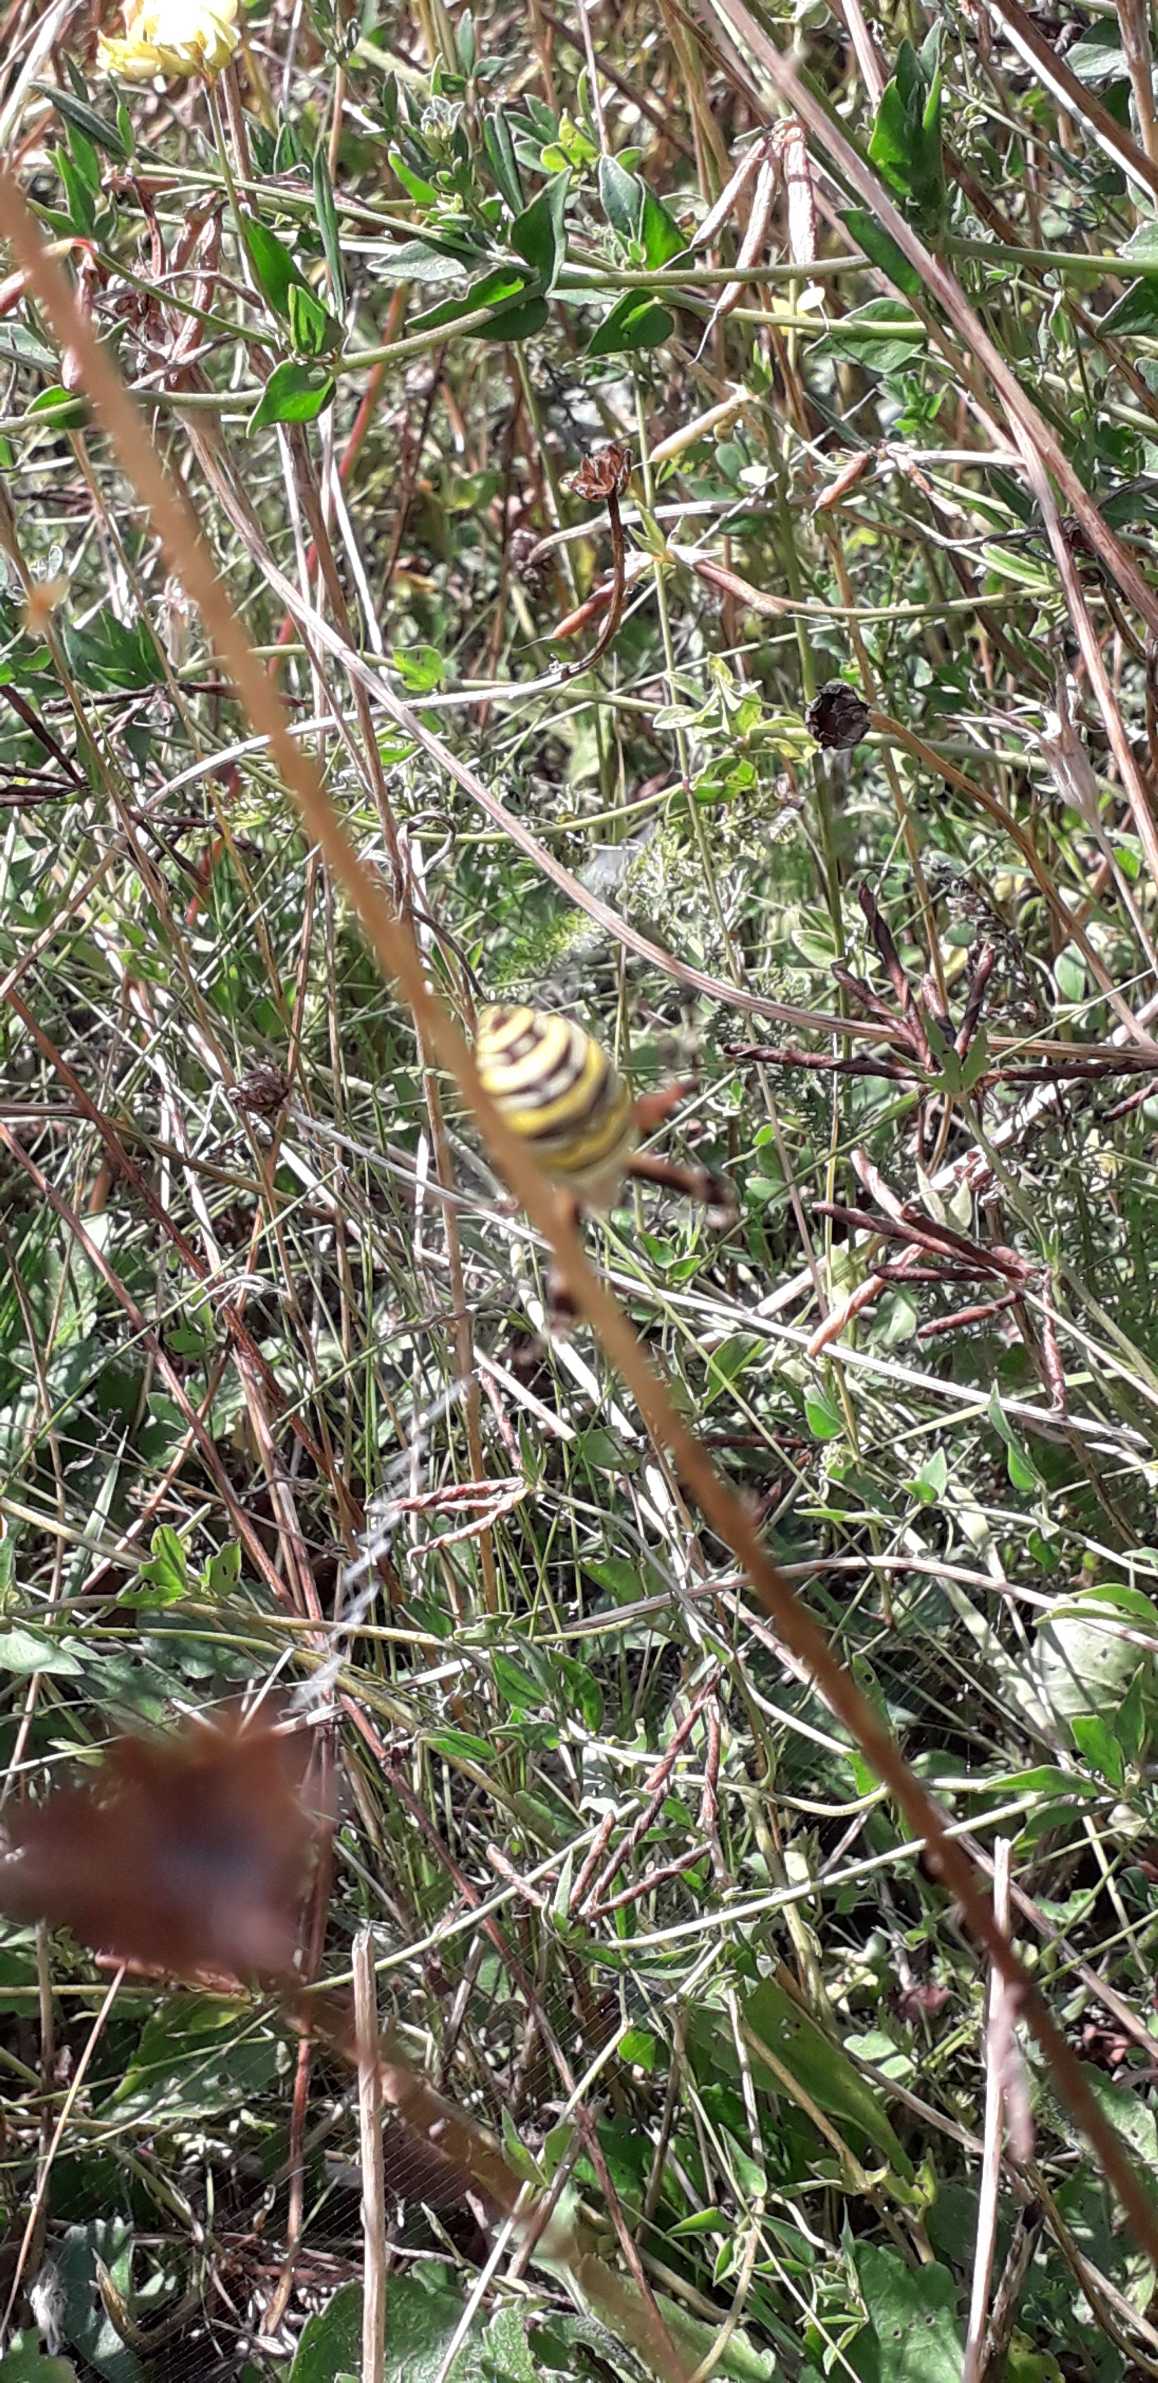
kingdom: Animalia
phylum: Arthropoda
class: Arachnida
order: Araneae
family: Araneidae
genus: Argiope
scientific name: Argiope bruennichi
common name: Hvepseedderkop
